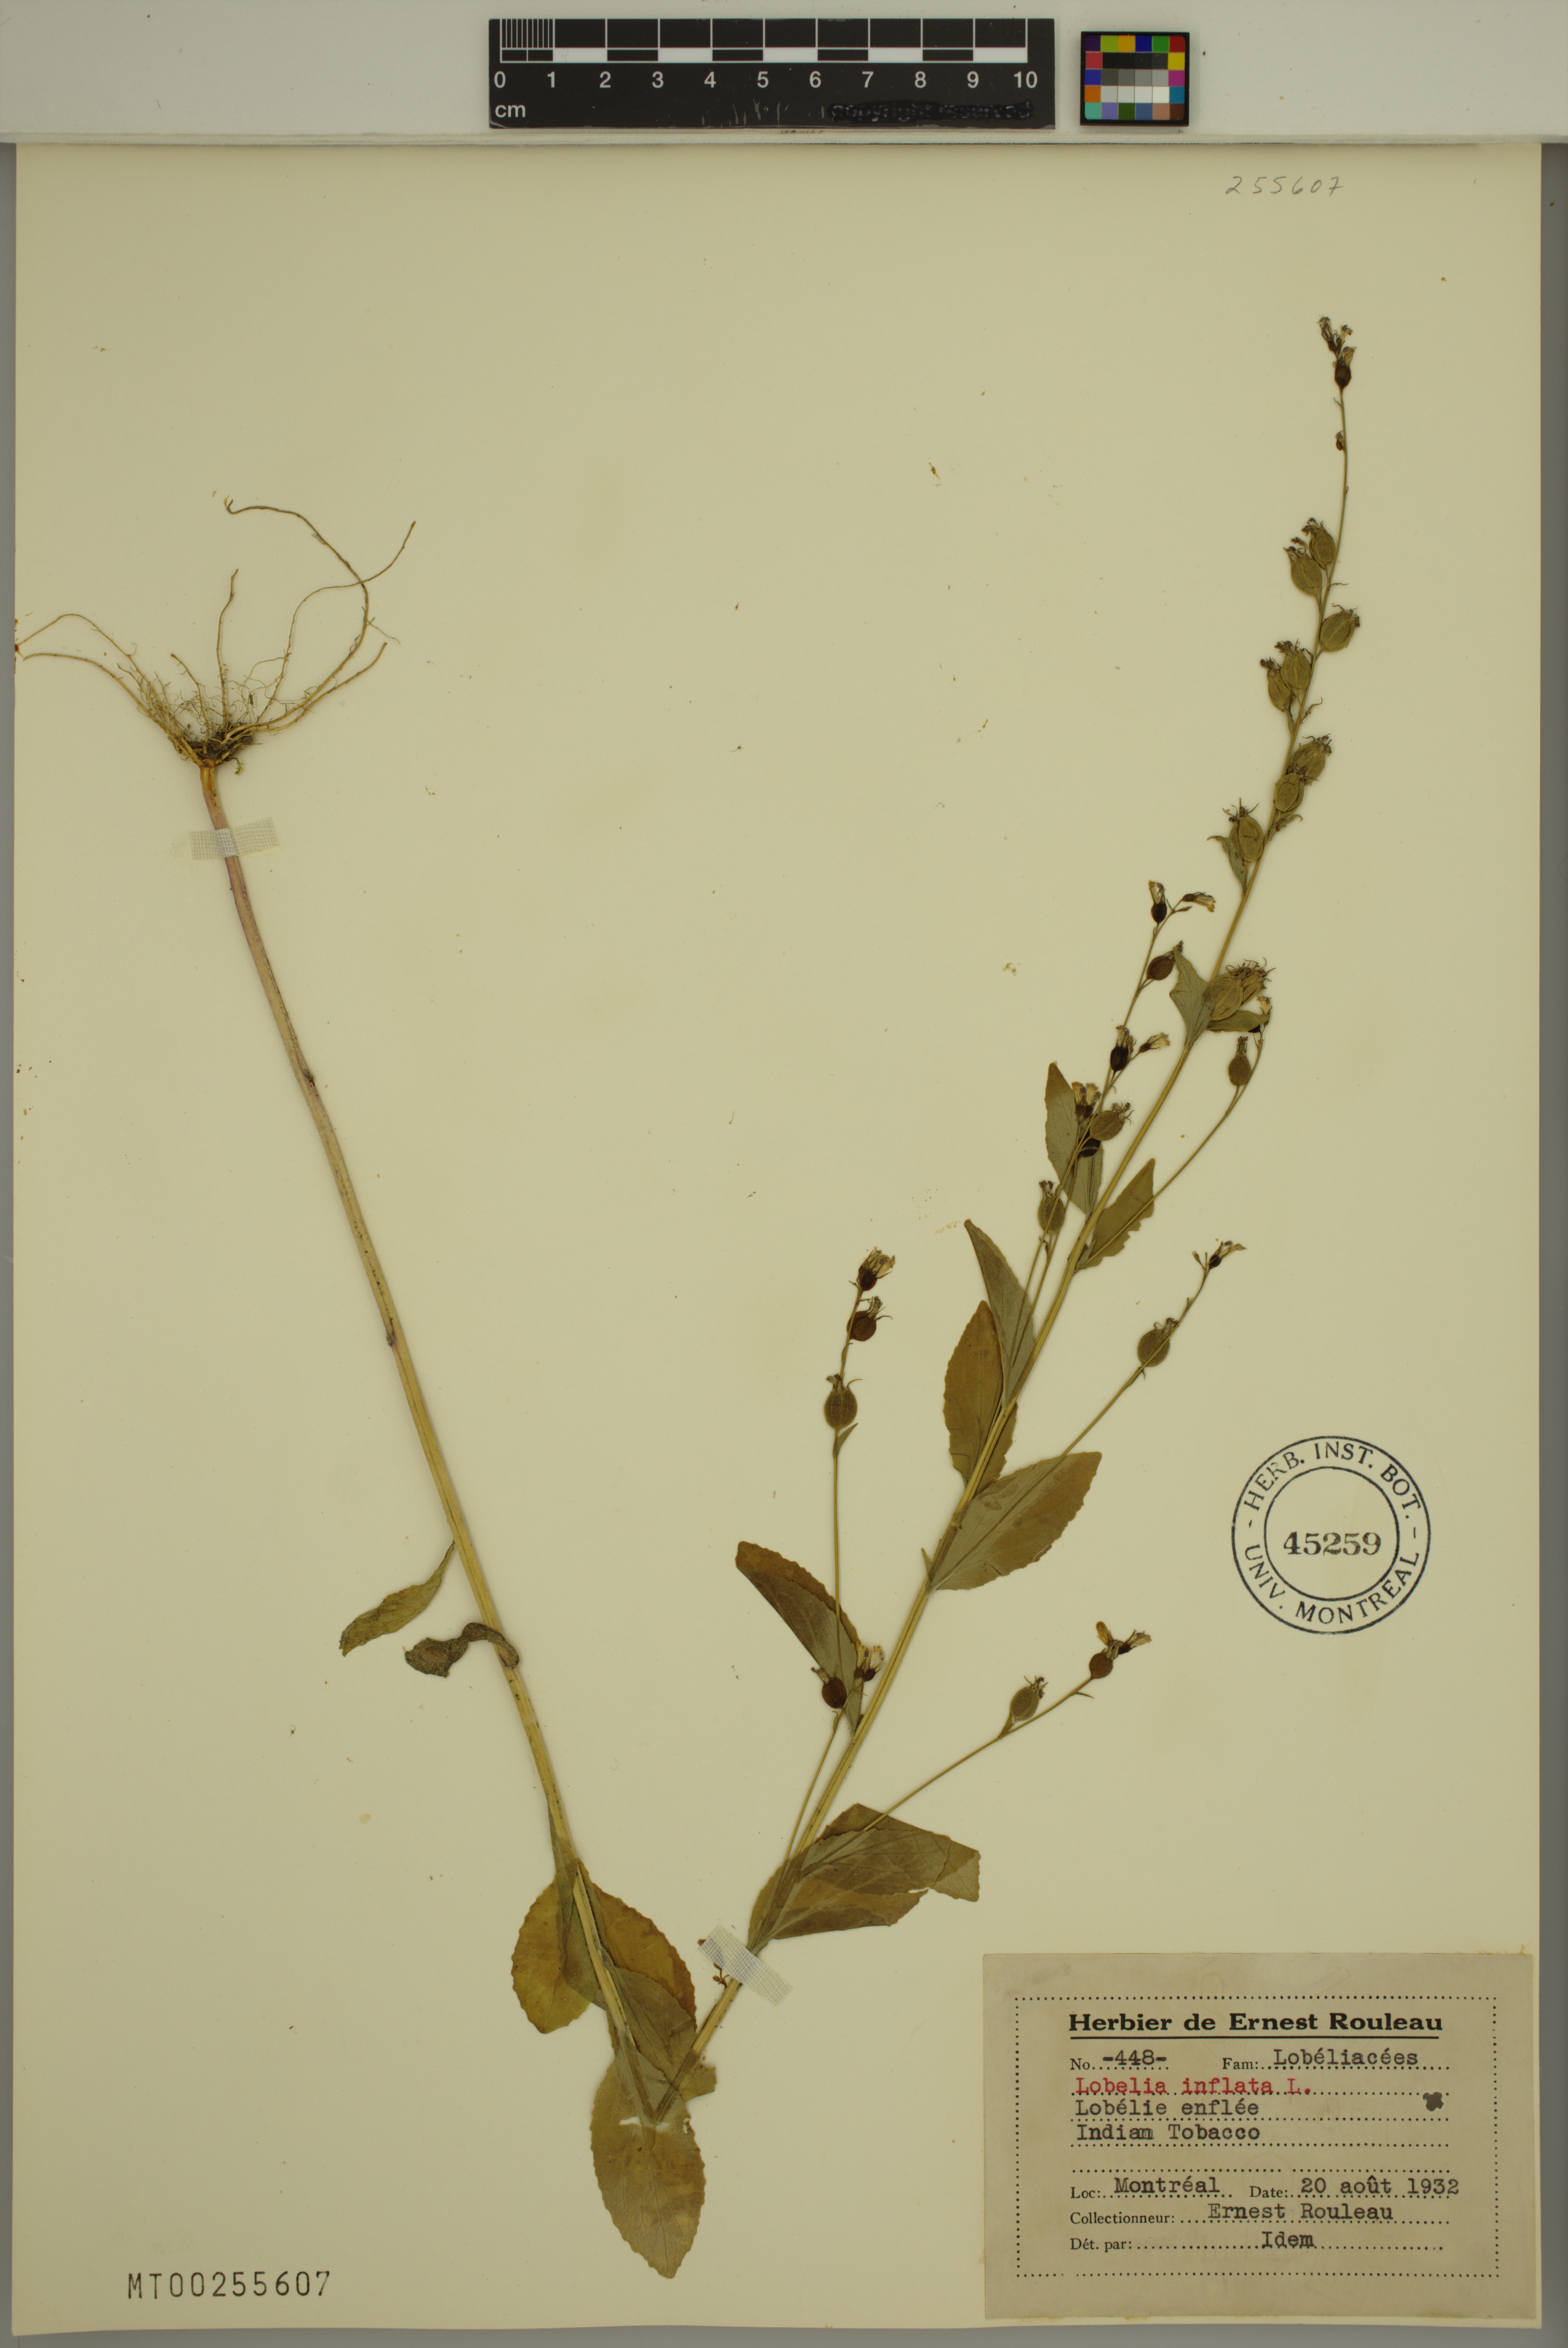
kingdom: Plantae
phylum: Tracheophyta
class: Magnoliopsida
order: Asterales
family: Campanulaceae
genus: Lobelia
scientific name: Lobelia inflata
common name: Indian tobacco
